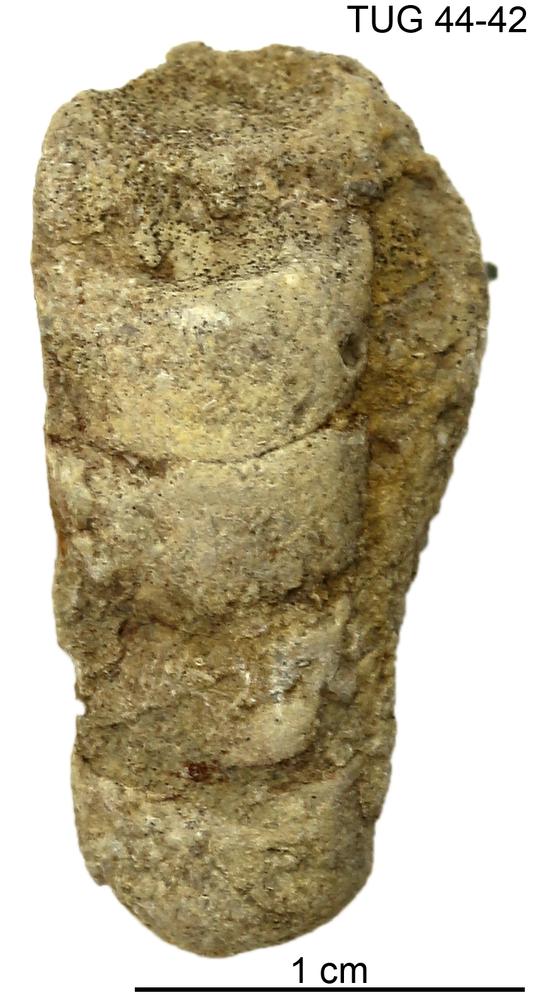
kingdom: Animalia
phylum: Mollusca
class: Cephalopoda
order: Orthocerida
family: Orthoceratidae
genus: Orthoceras
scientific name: Orthoceras
